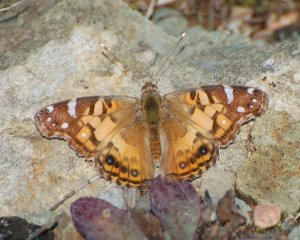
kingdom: Animalia
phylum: Arthropoda
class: Insecta
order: Lepidoptera
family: Nymphalidae
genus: Vanessa
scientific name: Vanessa virginiensis
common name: American Lady
